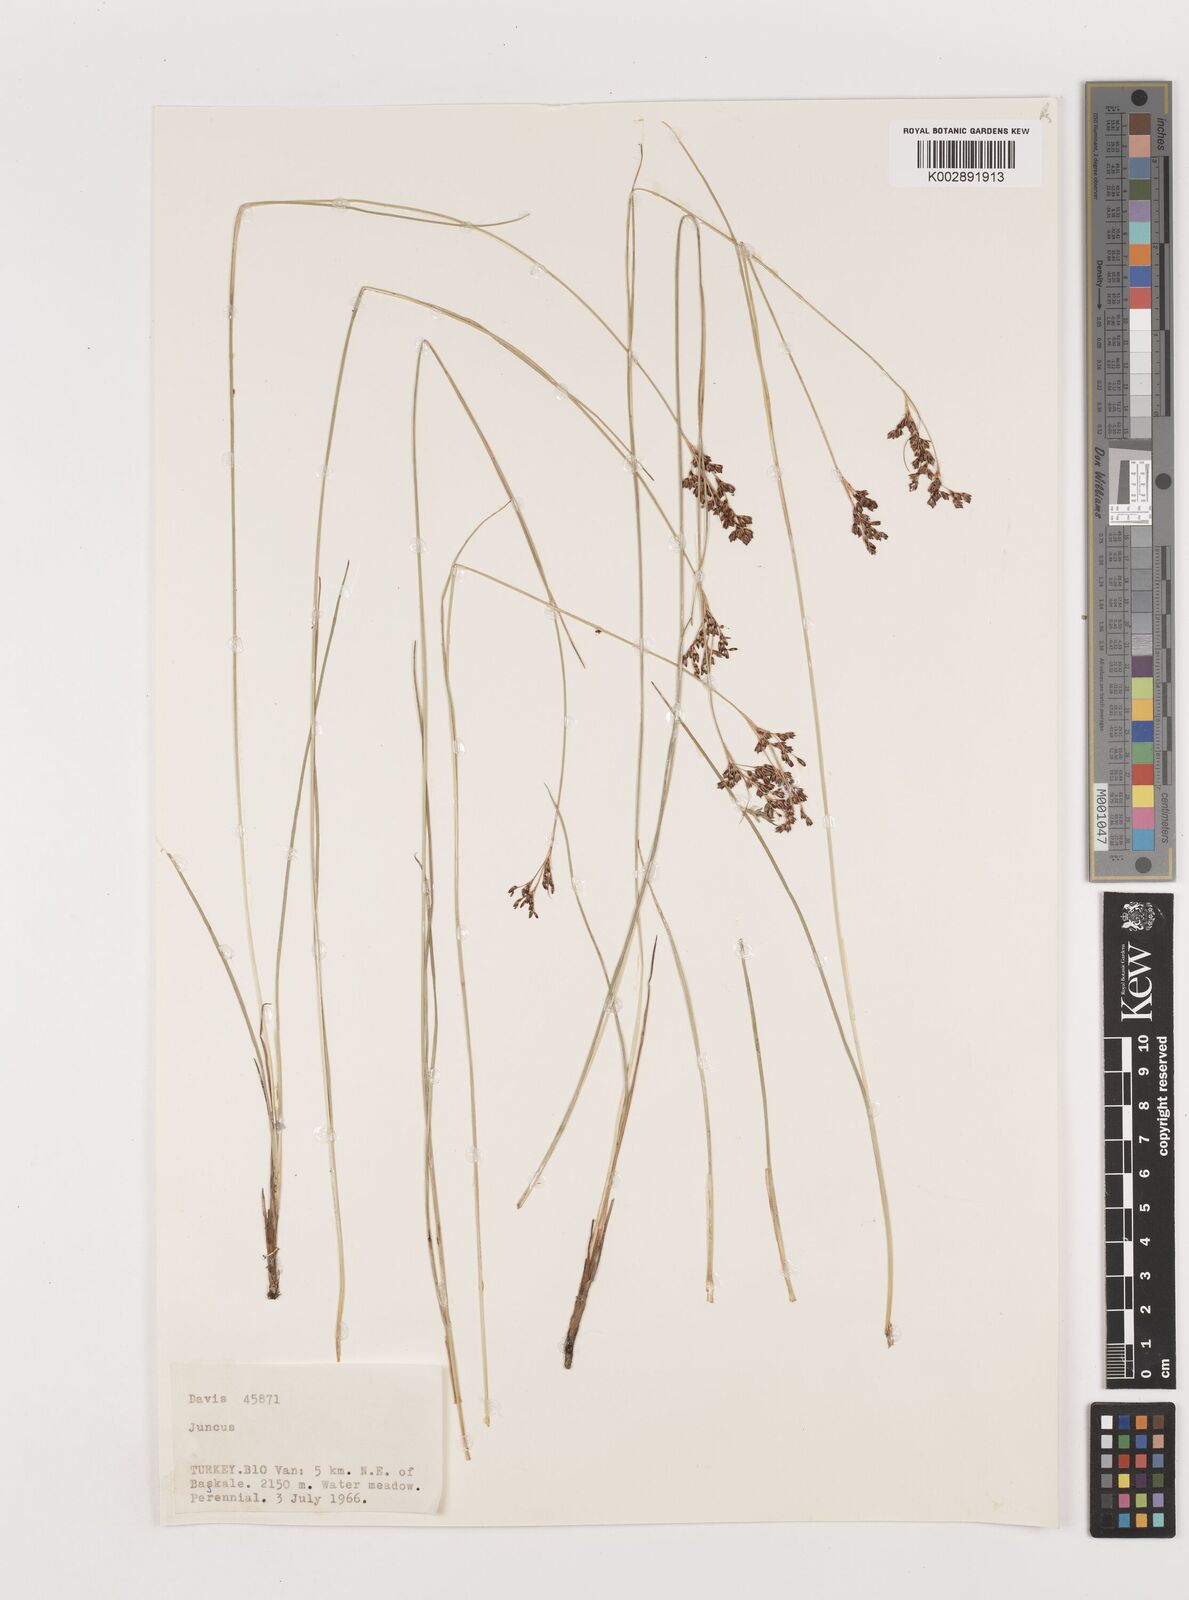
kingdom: Plantae
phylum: Tracheophyta
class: Liliopsida
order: Poales
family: Juncaceae
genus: Juncus
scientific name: Juncus
